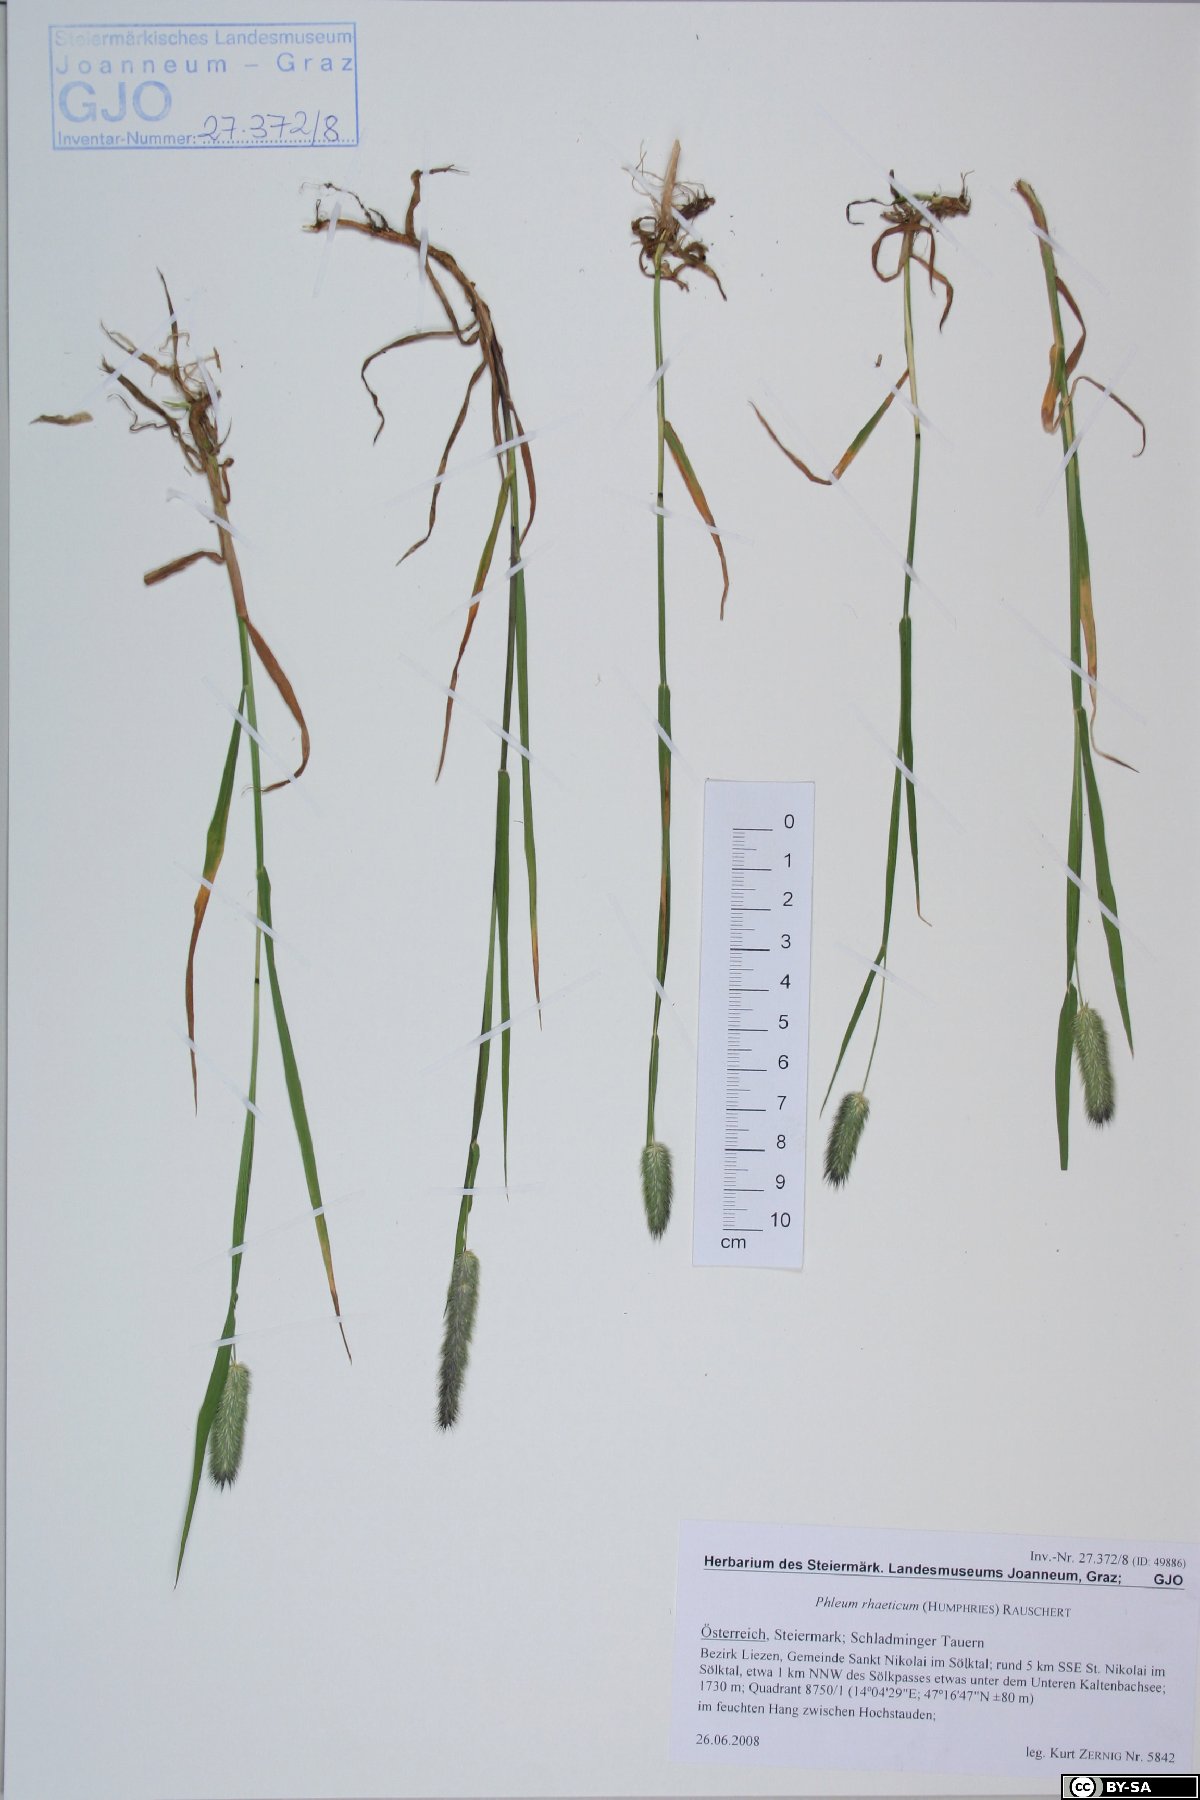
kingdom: Plantae
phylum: Tracheophyta
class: Liliopsida
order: Poales
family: Poaceae
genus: Phleum
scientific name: Phleum alpinum
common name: Alpine cat's-tail
